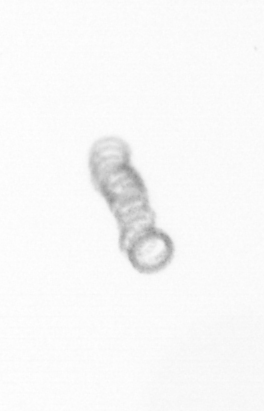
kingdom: Chromista
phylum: Ochrophyta
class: Bacillariophyceae
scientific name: Bacillariophyceae
